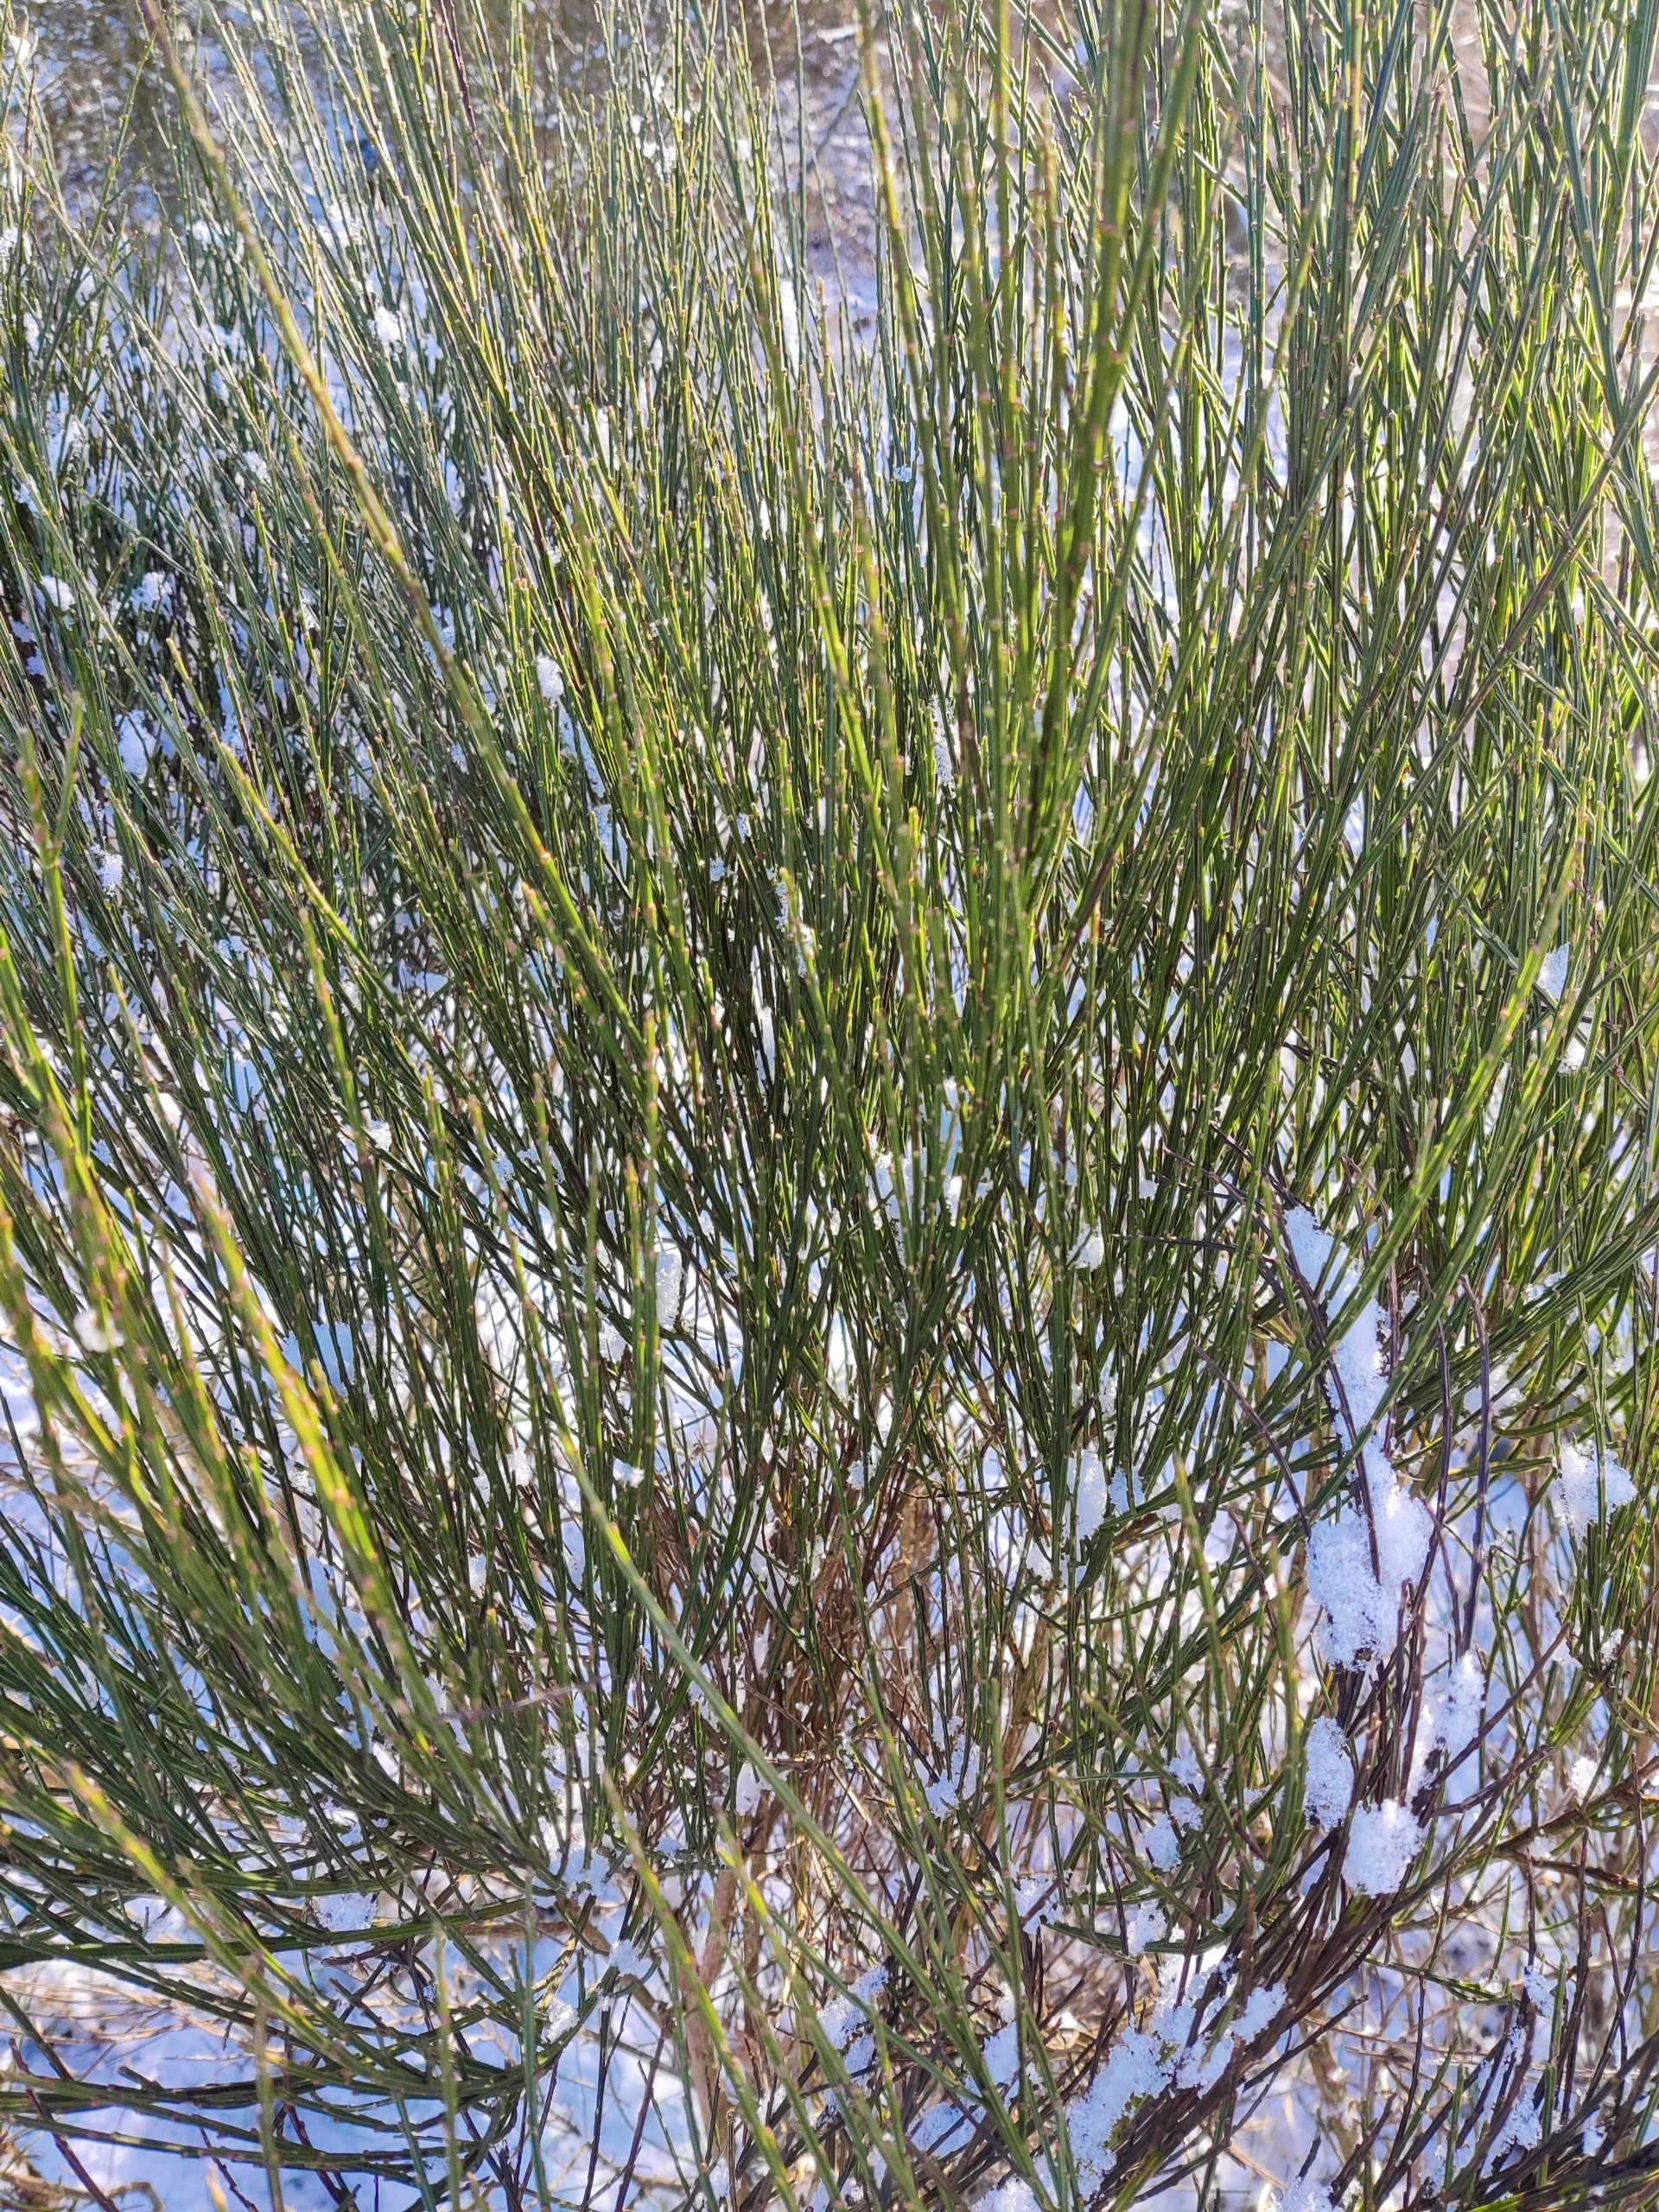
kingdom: Plantae
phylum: Tracheophyta
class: Magnoliopsida
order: Fabales
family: Fabaceae
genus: Cytisus
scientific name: Cytisus scoparius
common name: Almindelig gyvel
